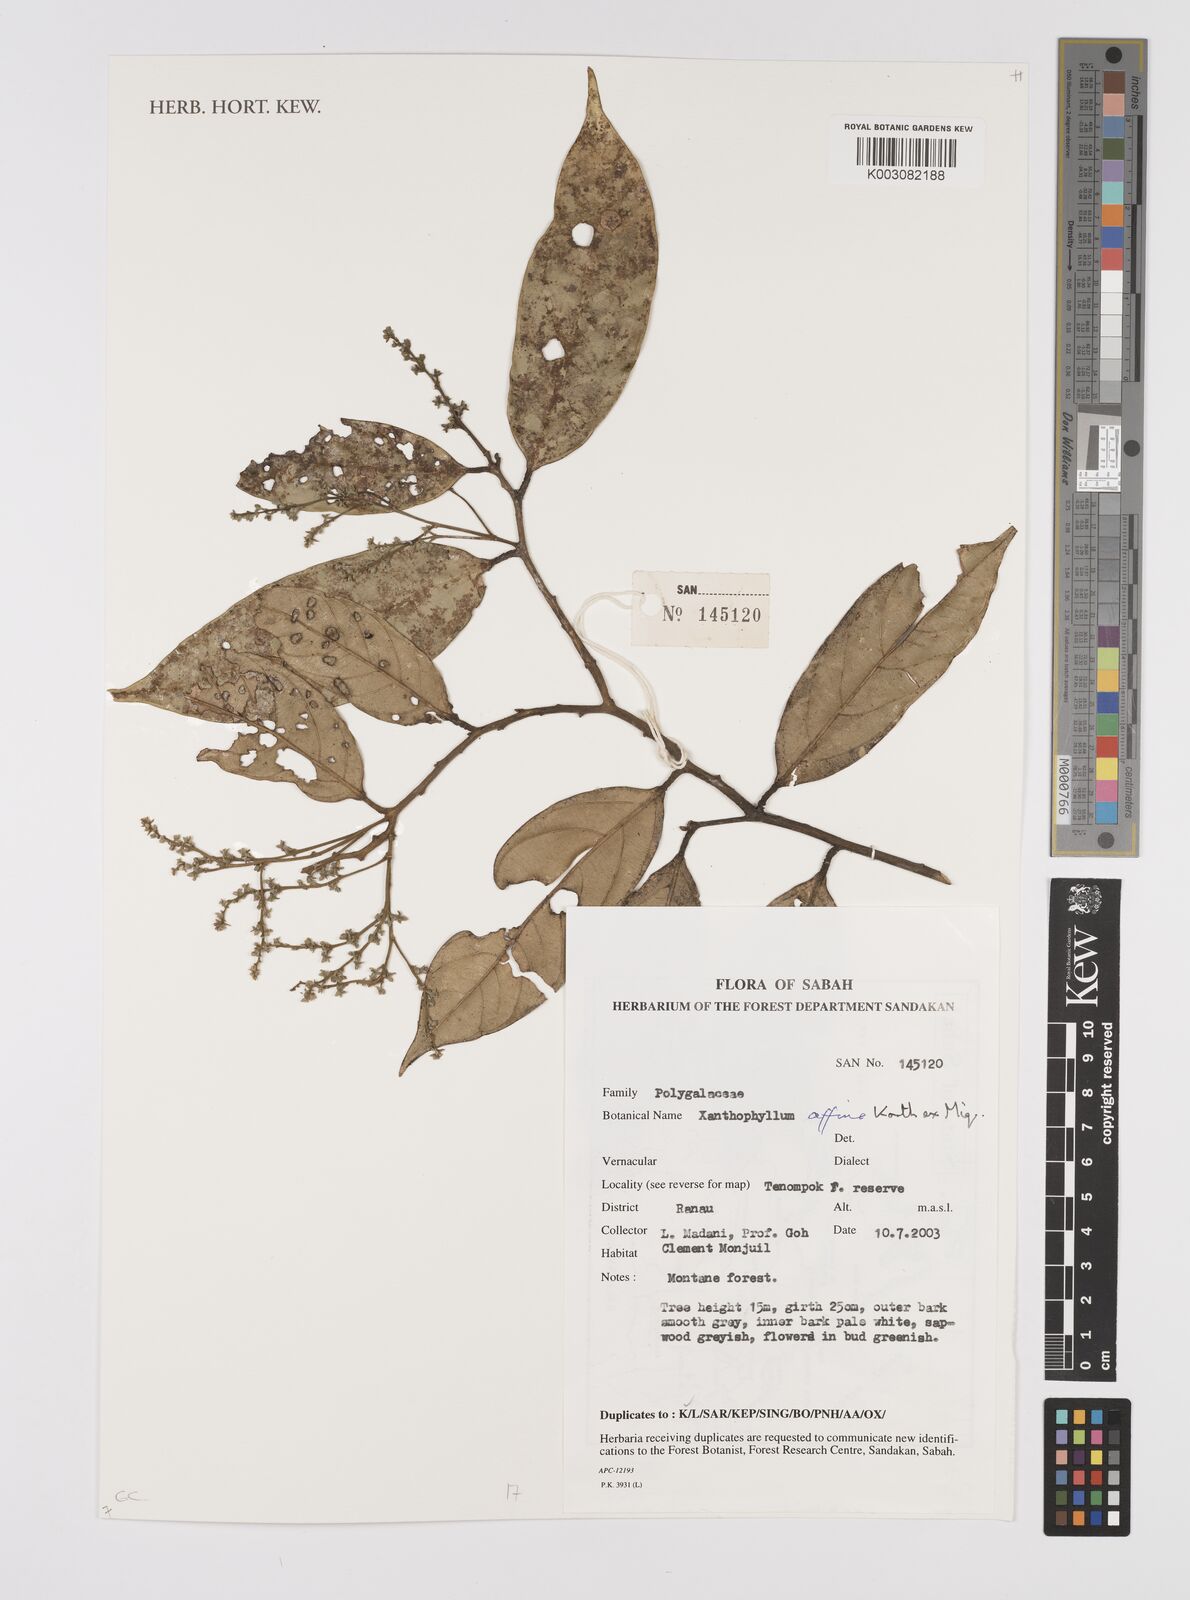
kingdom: Plantae
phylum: Tracheophyta
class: Magnoliopsida
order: Fabales
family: Polygalaceae
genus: Xanthophyllum
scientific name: Xanthophyllum flavescens
